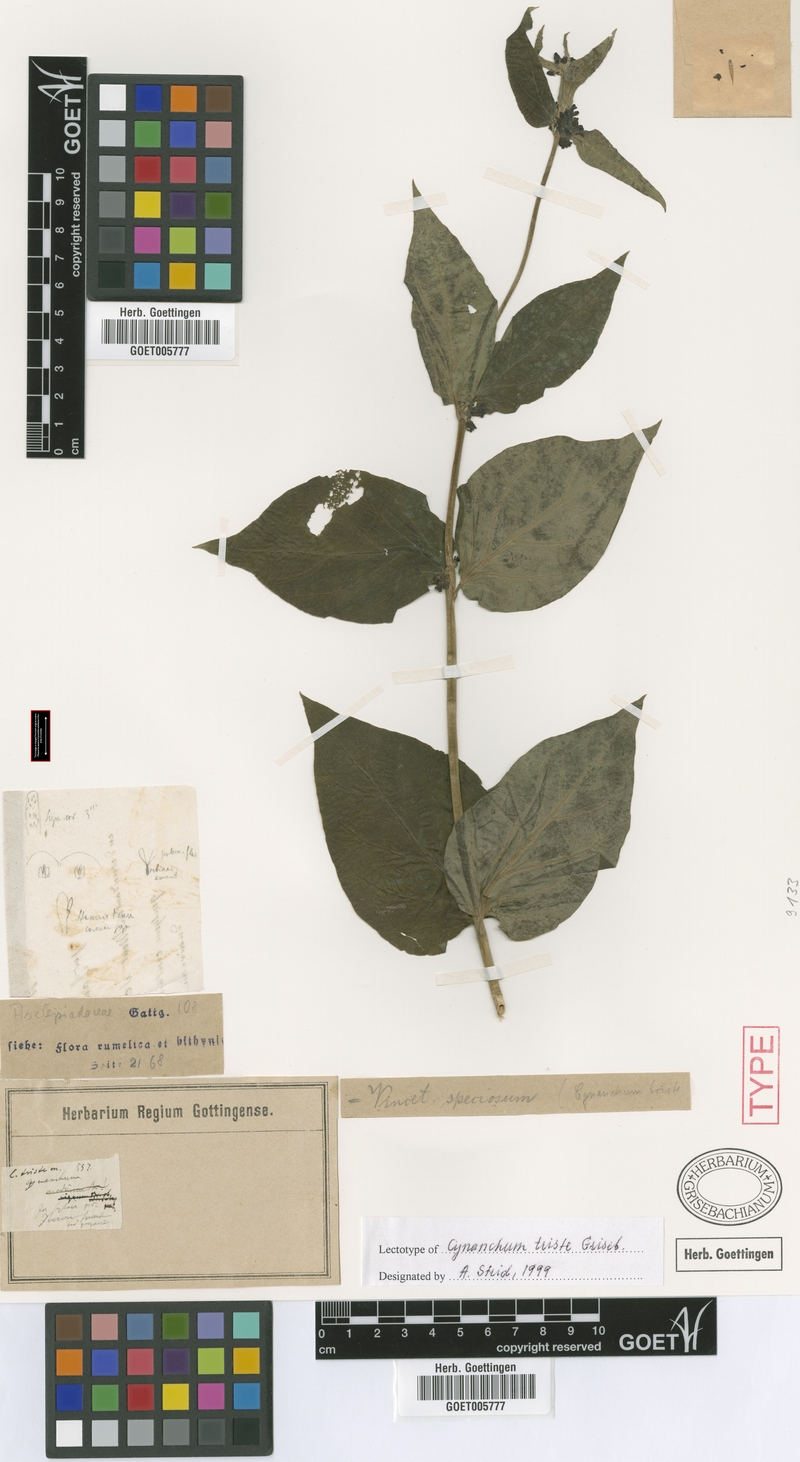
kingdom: Plantae
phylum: Tracheophyta
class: Magnoliopsida
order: Gentianales
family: Apocynaceae
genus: Vincetoxicum
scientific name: Vincetoxicum speciosum
